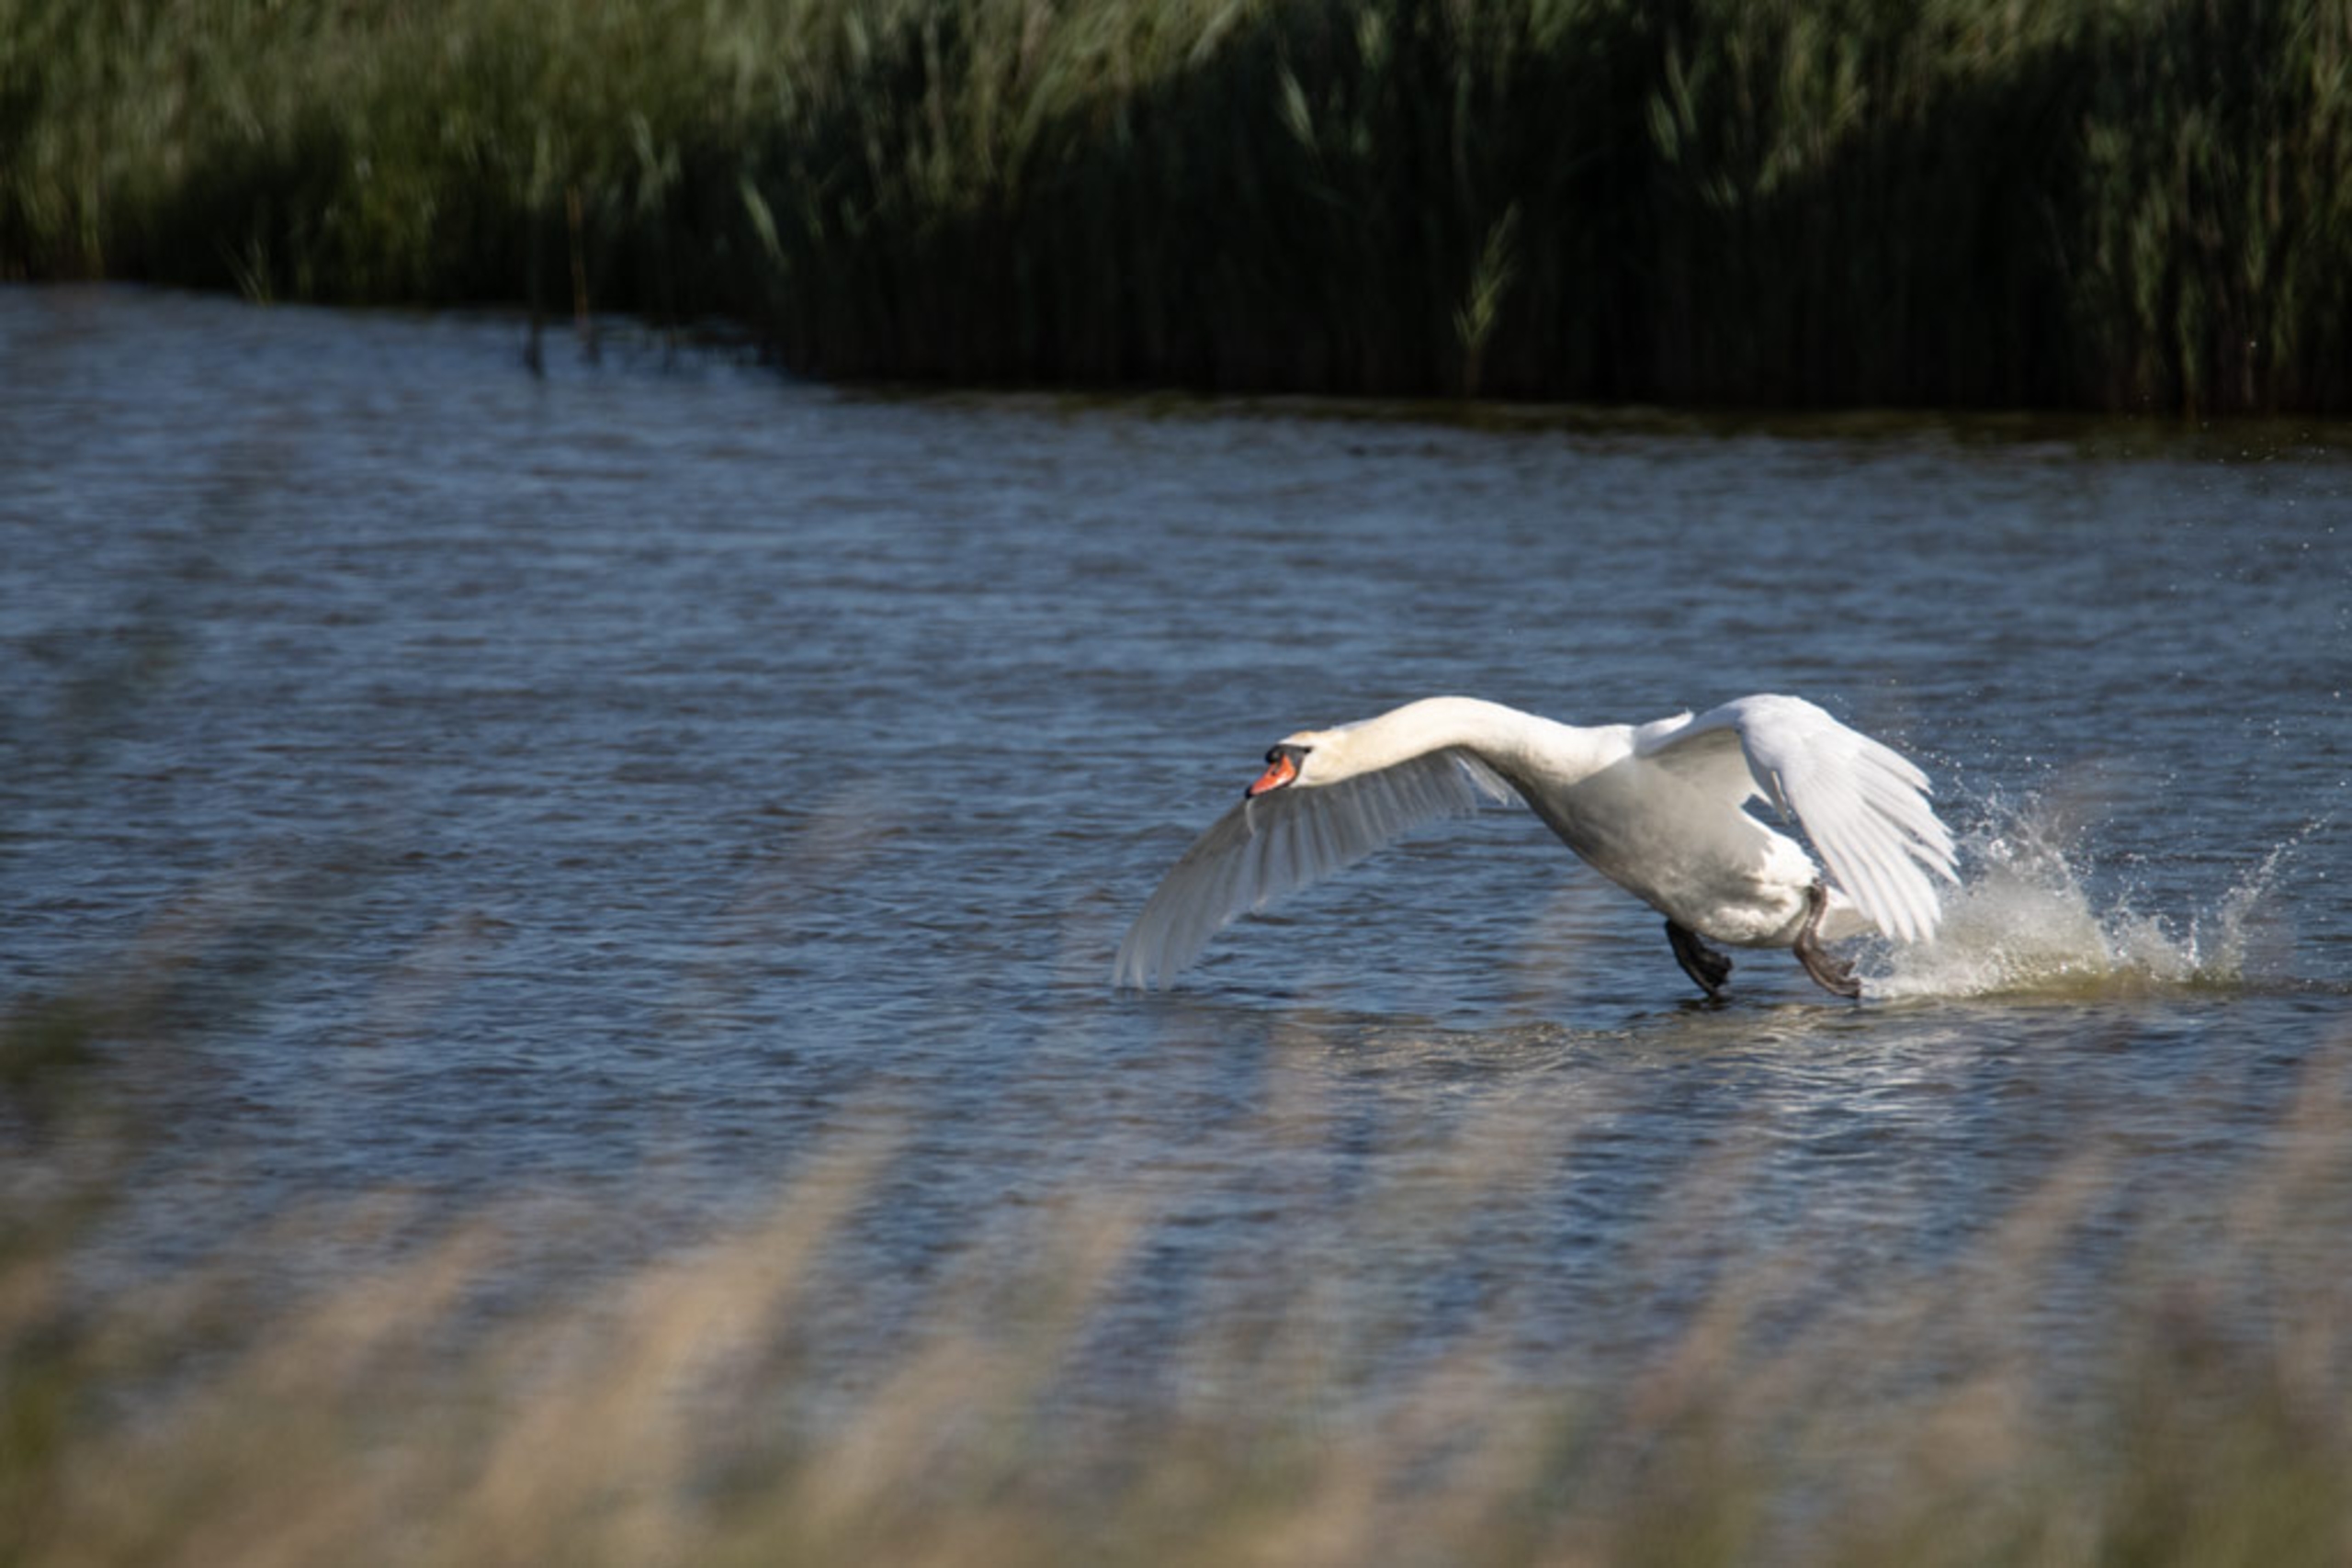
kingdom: Animalia
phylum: Chordata
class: Aves
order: Anseriformes
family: Anatidae
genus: Cygnus
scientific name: Cygnus olor
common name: Knopsvane
